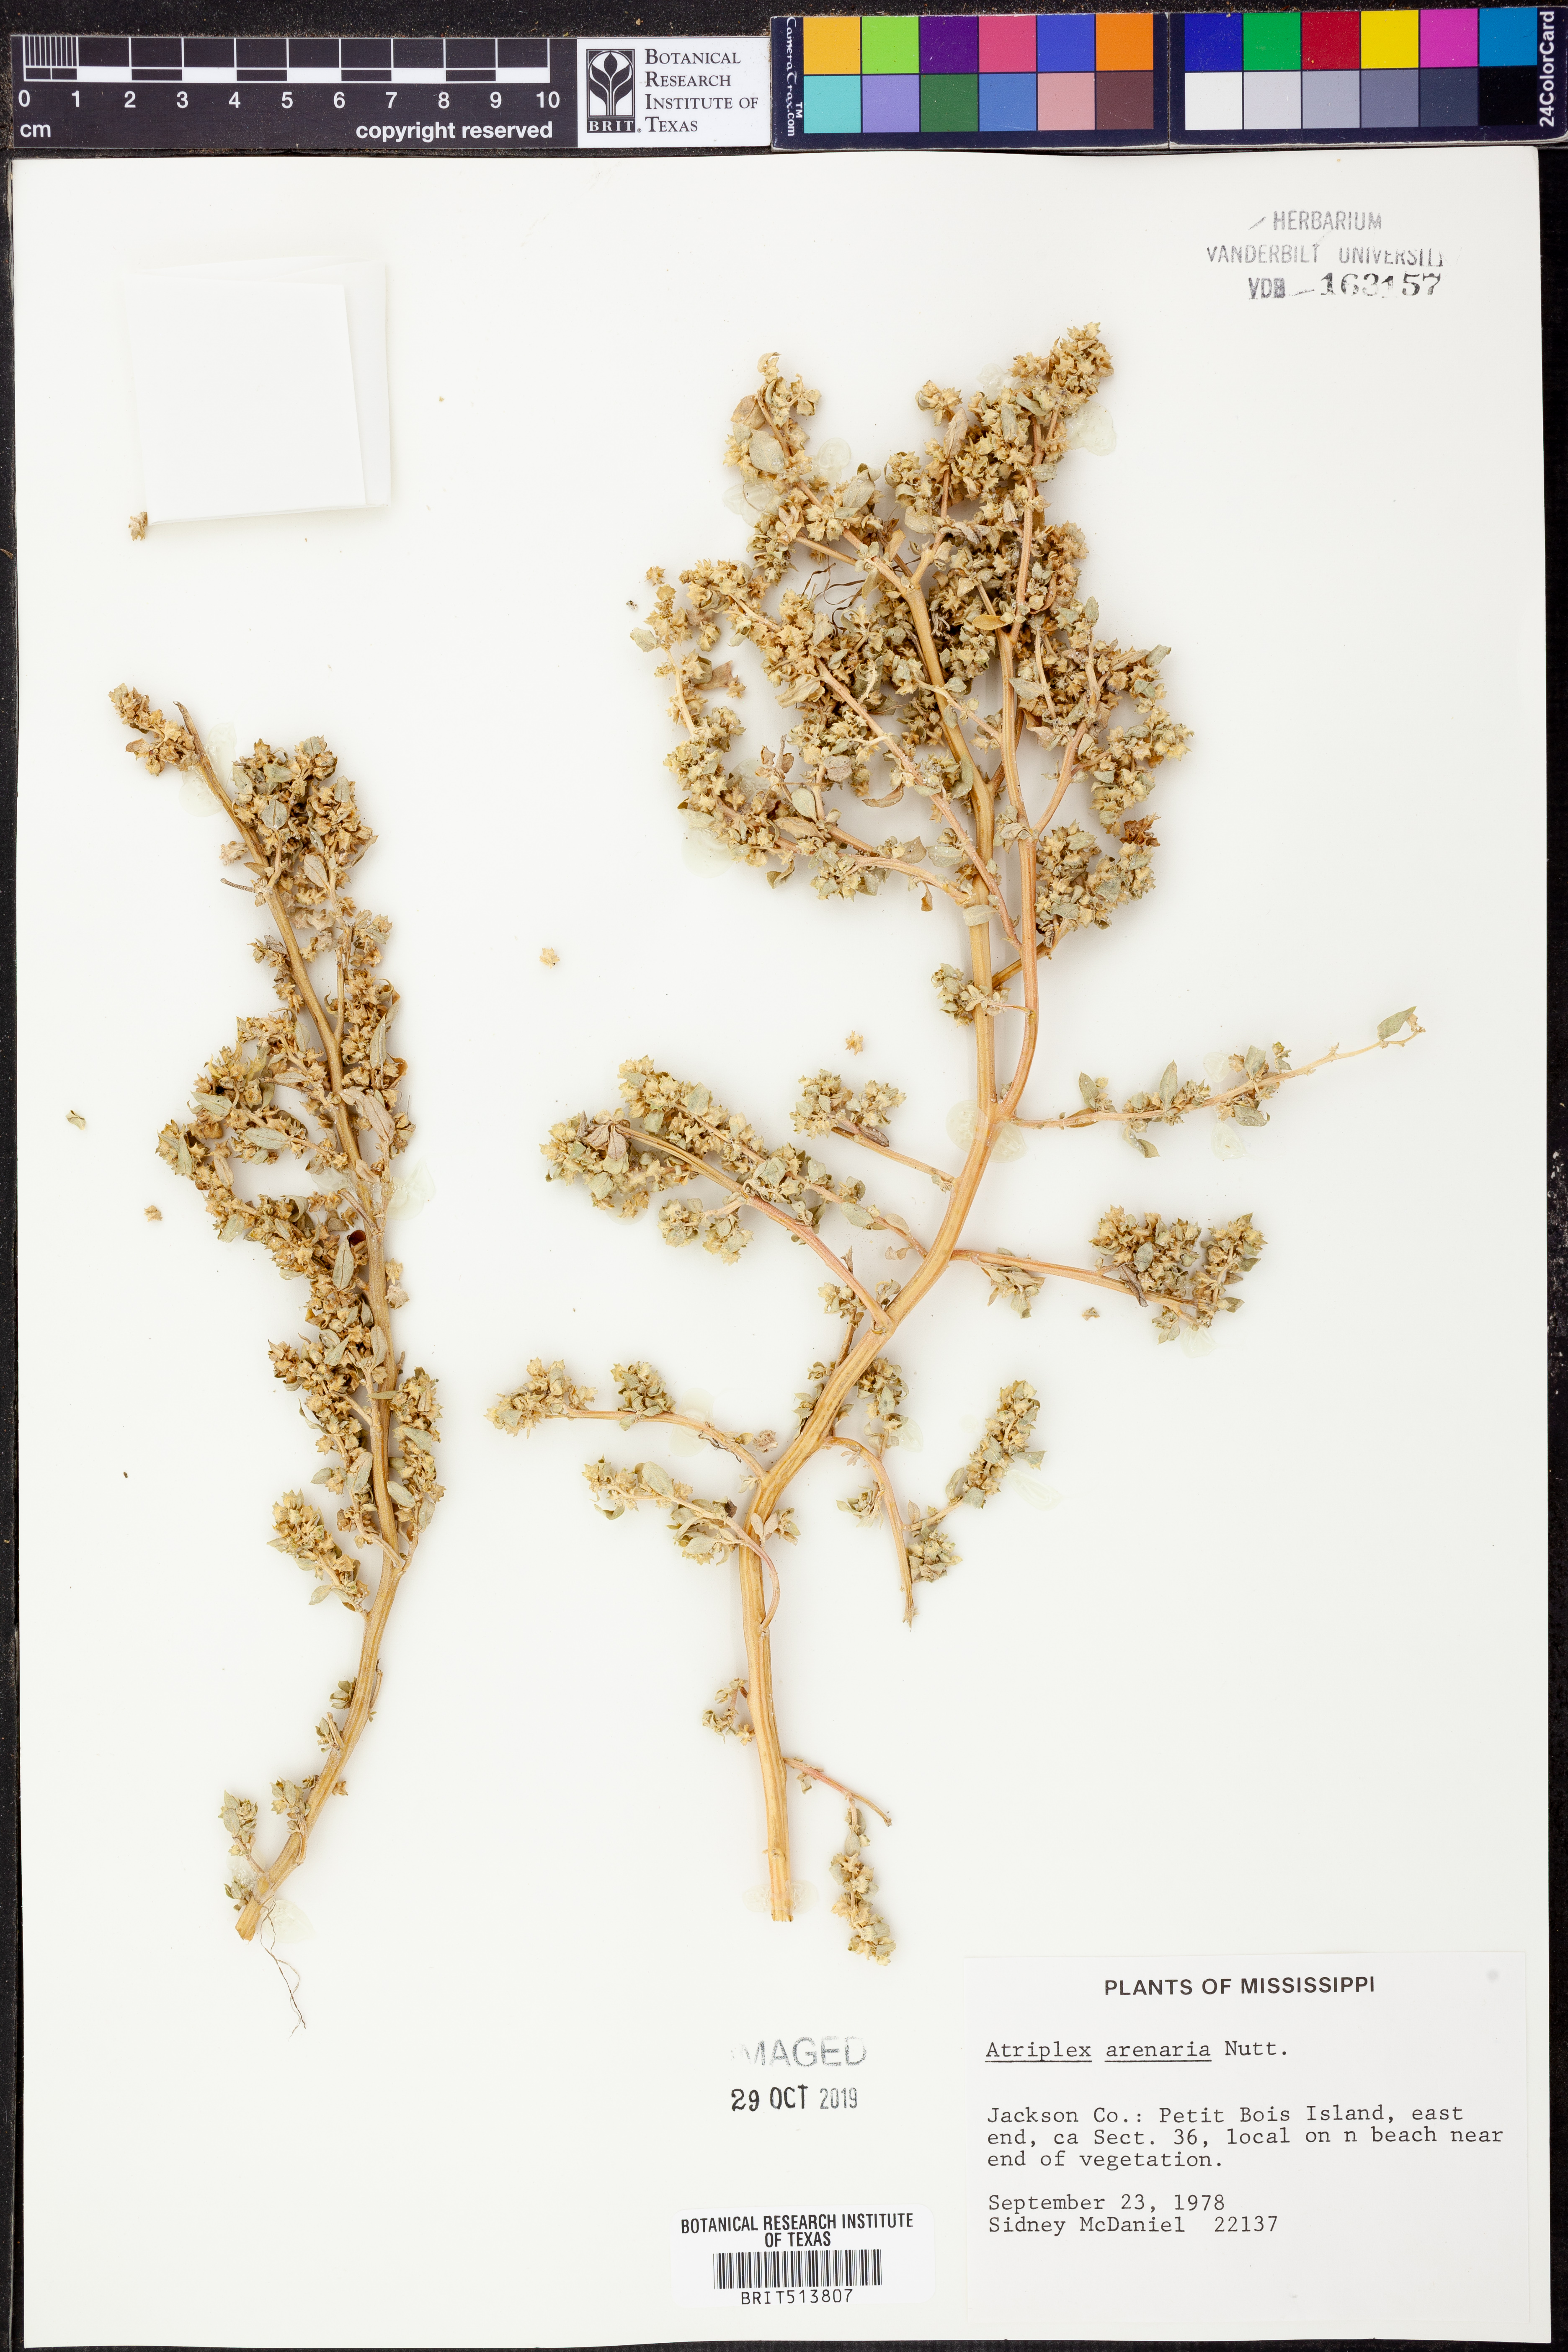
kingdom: Plantae
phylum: Tracheophyta
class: Magnoliopsida
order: Caryophyllales
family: Amaranthaceae
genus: Atriplex
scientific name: Atriplex mucronata
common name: Quelite
